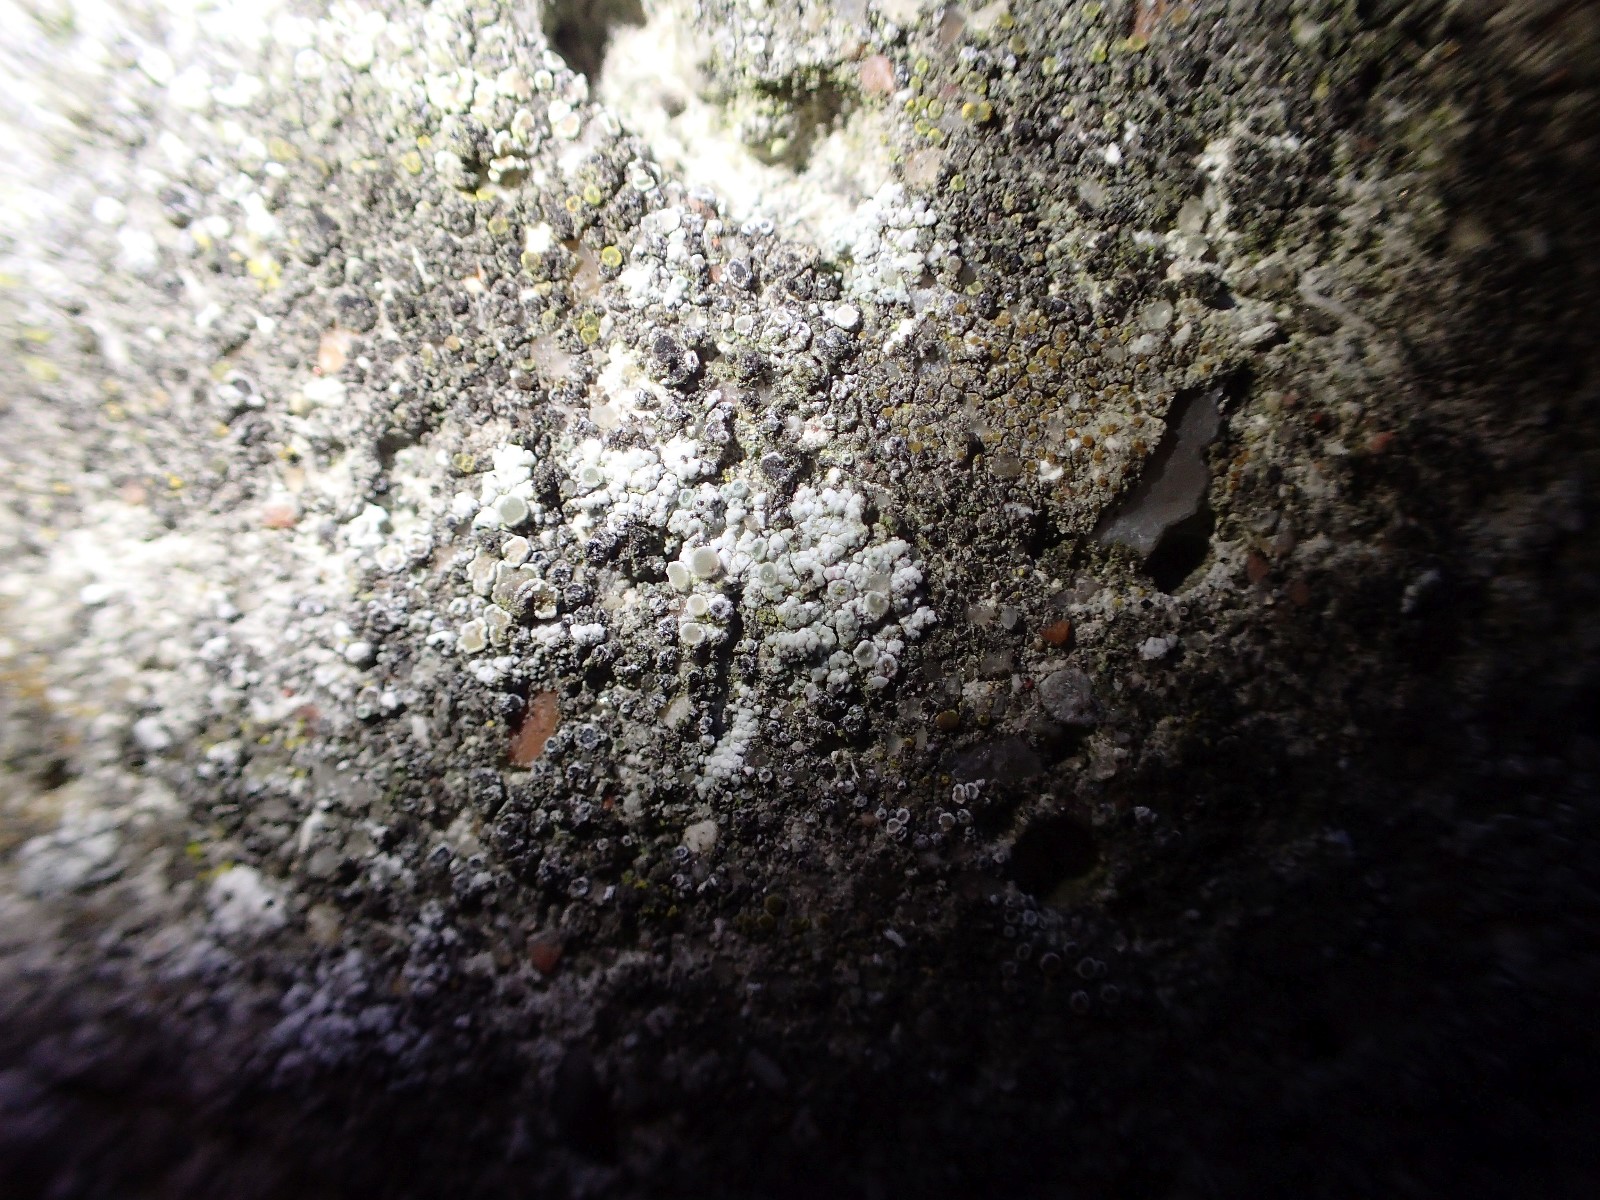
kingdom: Fungi
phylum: Ascomycota
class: Lecanoromycetes
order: Lecanorales
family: Lecanoraceae
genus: Polyozosia
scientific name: Polyozosia albescens
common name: cement-kantskivelav
